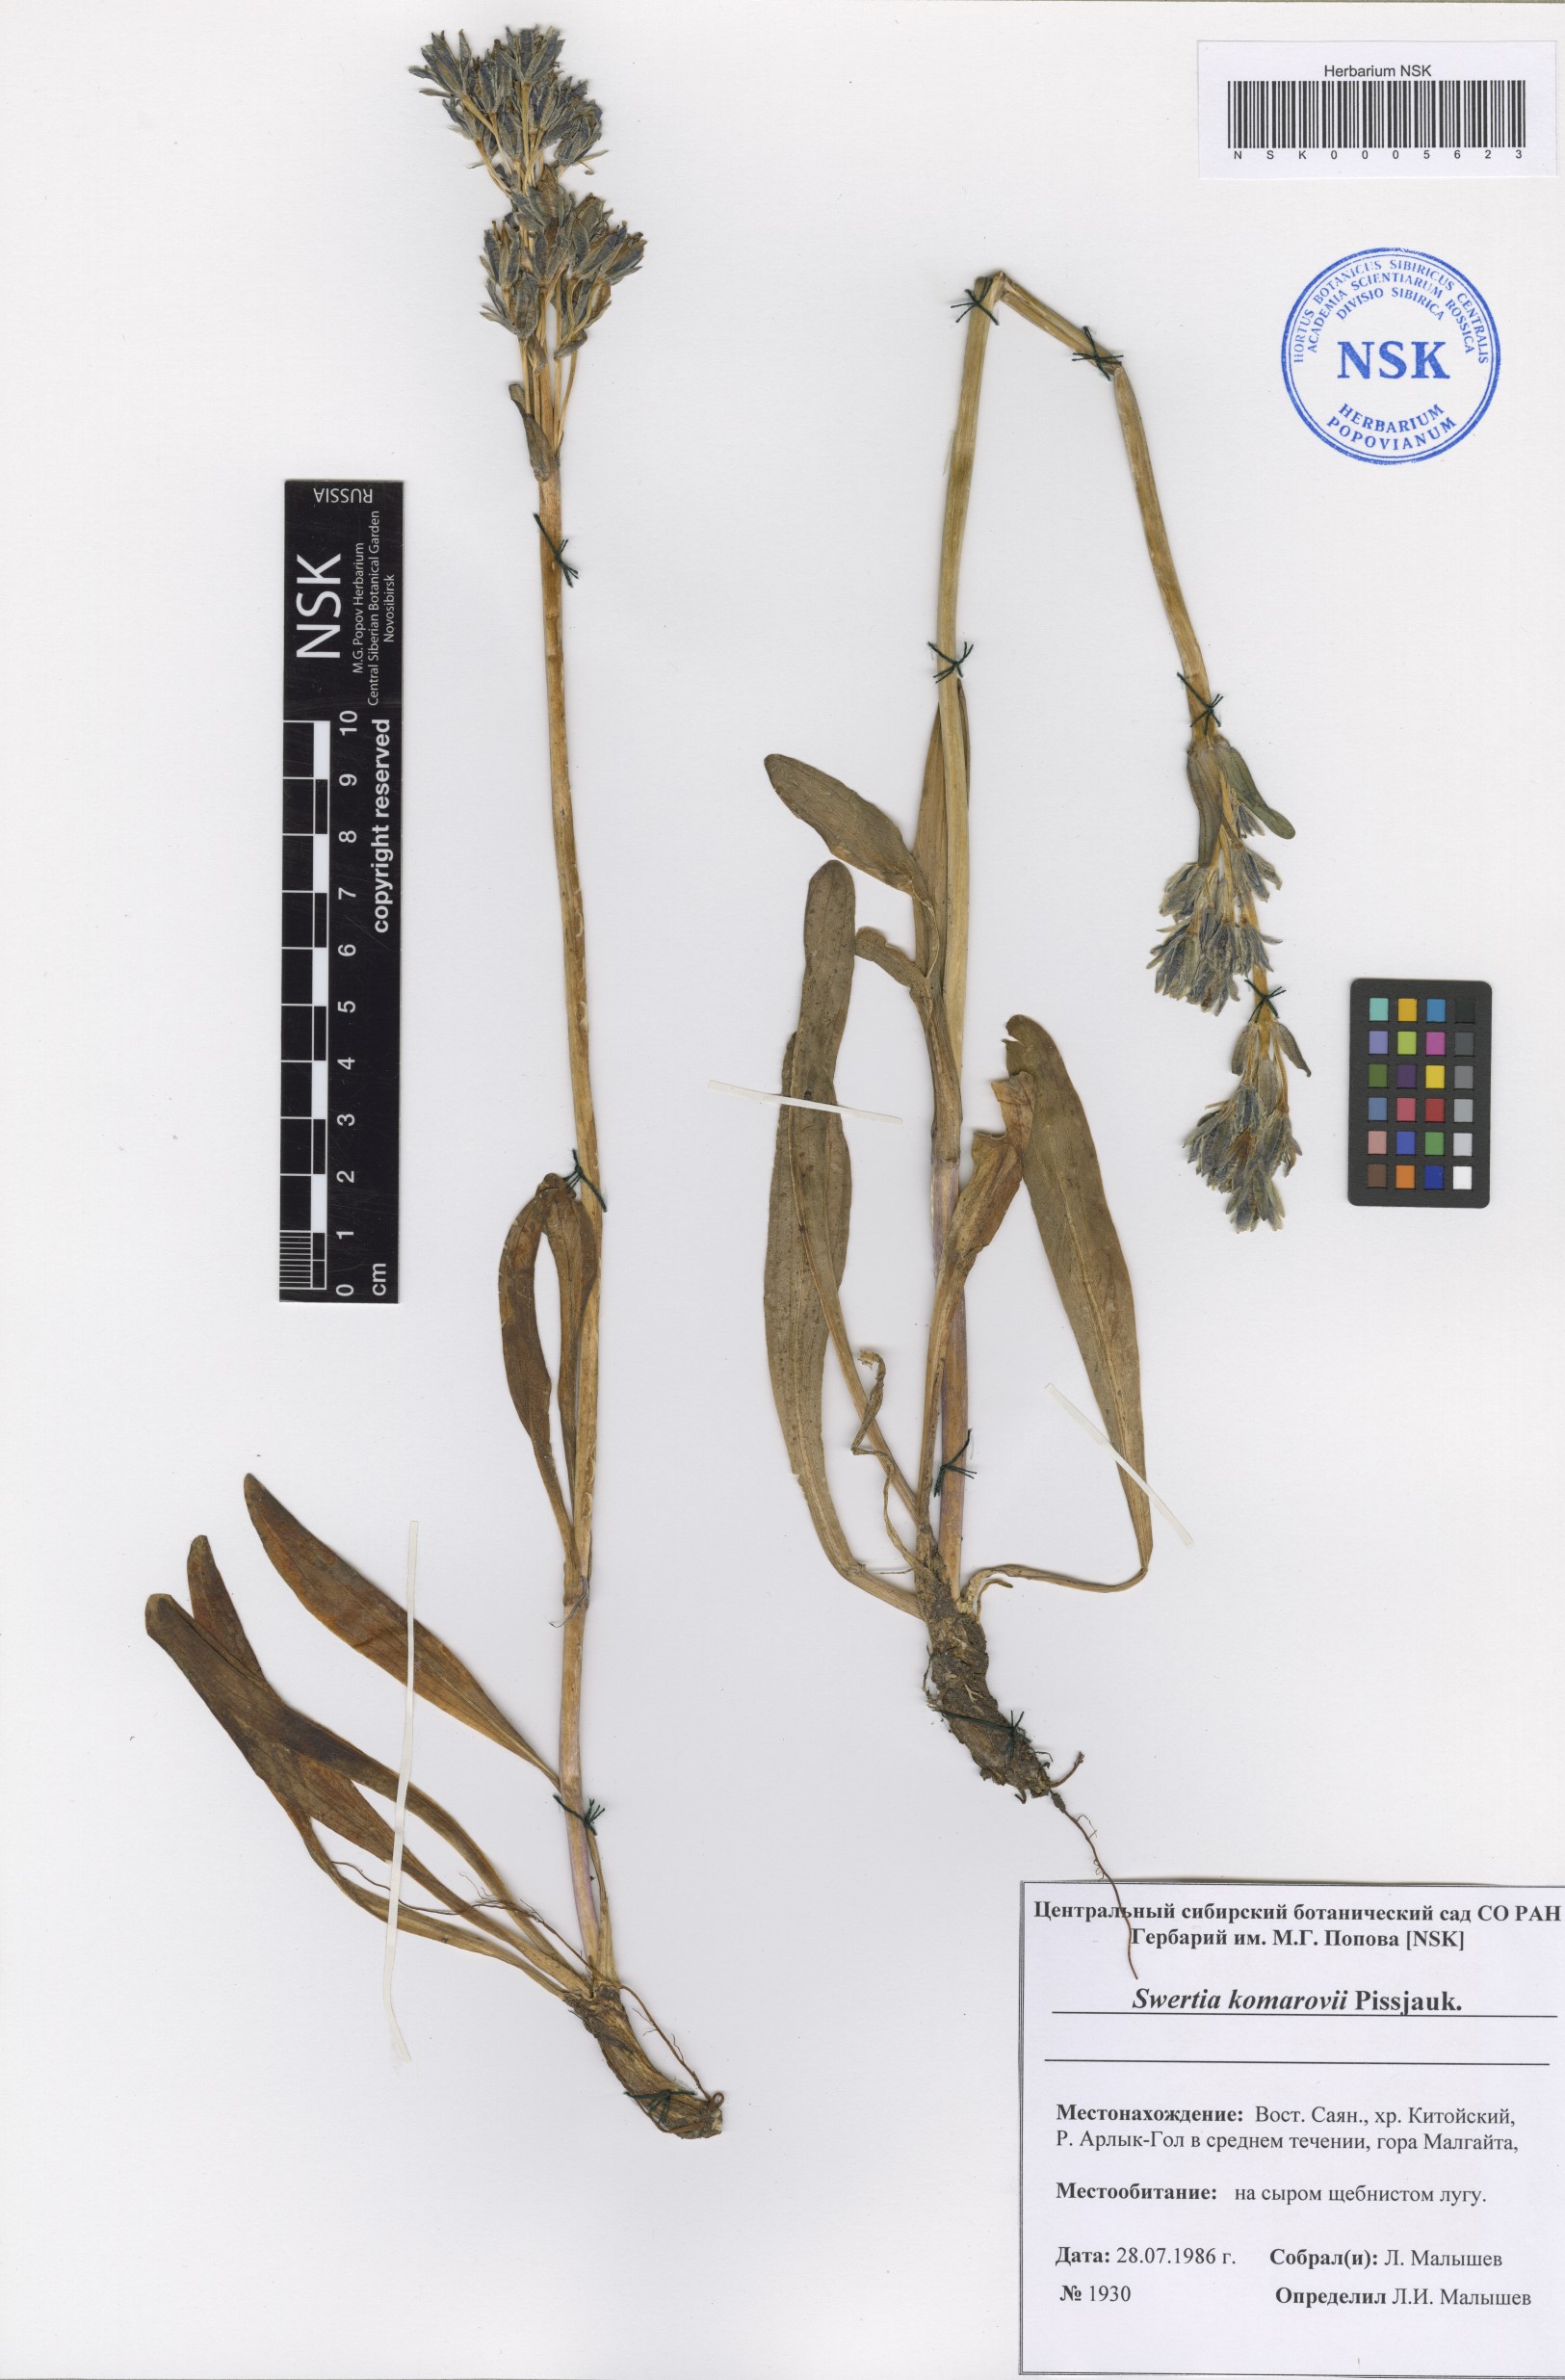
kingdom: Plantae
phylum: Tracheophyta
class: Magnoliopsida
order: Gentianales
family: Gentianaceae
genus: Swertia
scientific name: Swertia marginata
